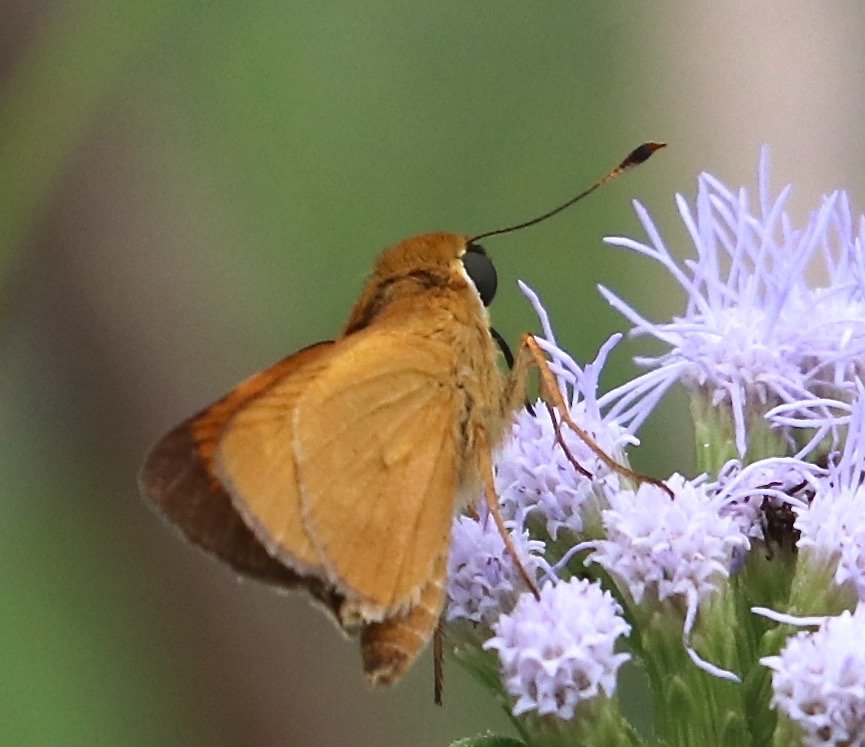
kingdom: Animalia
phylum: Arthropoda
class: Insecta
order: Lepidoptera
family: Hesperiidae
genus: Mellana
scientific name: Mellana eulogius
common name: Common Mellana
